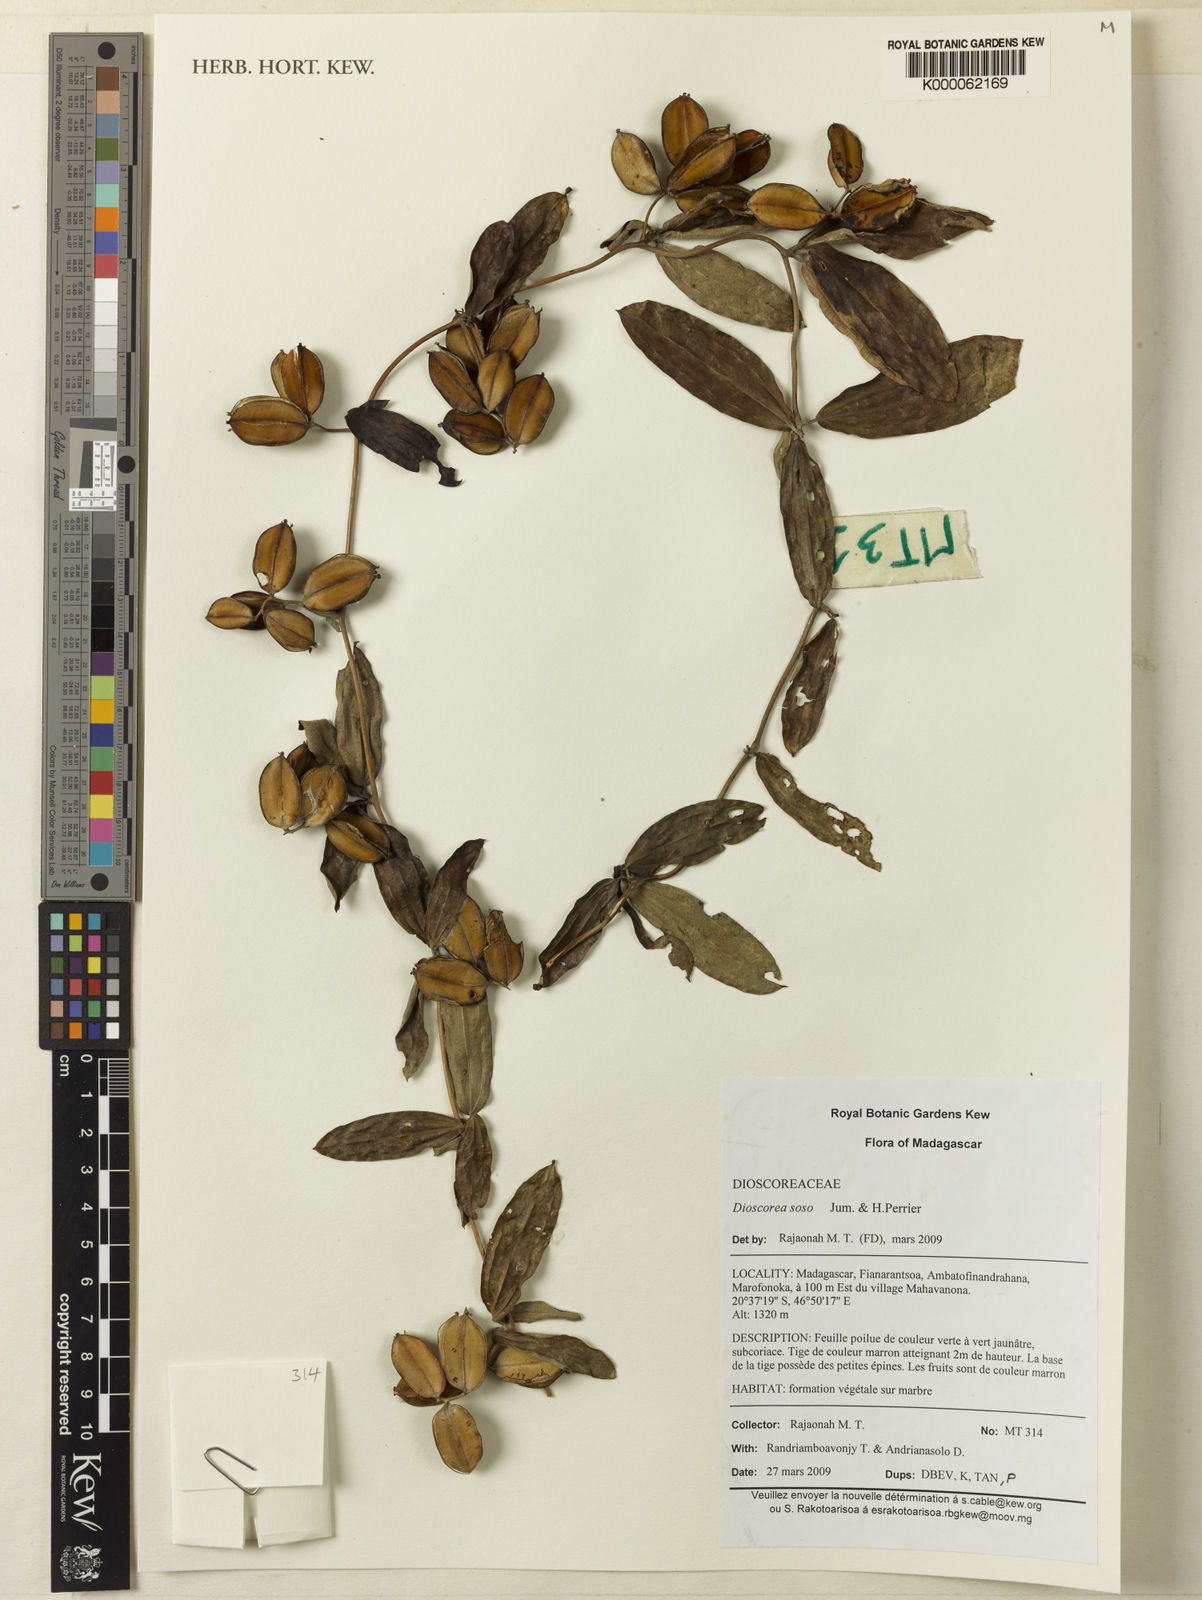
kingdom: Plantae
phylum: Tracheophyta
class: Liliopsida
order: Dioscoreales
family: Dioscoreaceae
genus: Dioscorea
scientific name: Dioscorea soso
